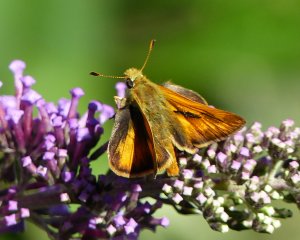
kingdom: Animalia
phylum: Arthropoda
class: Insecta
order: Lepidoptera
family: Hesperiidae
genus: Ochlodes
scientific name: Ochlodes sylvanoides
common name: Woodland Skipper
